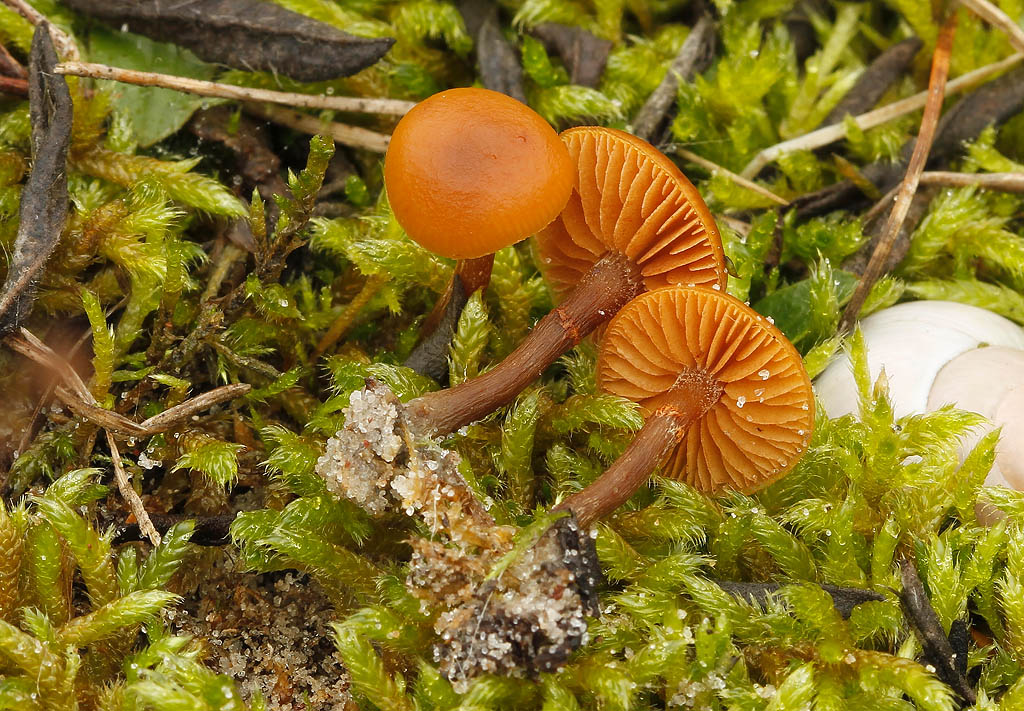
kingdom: Fungi
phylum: Basidiomycota
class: Agaricomycetes
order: Agaricales
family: Hymenogastraceae
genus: Galerina
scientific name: Galerina esteve-raventosii
